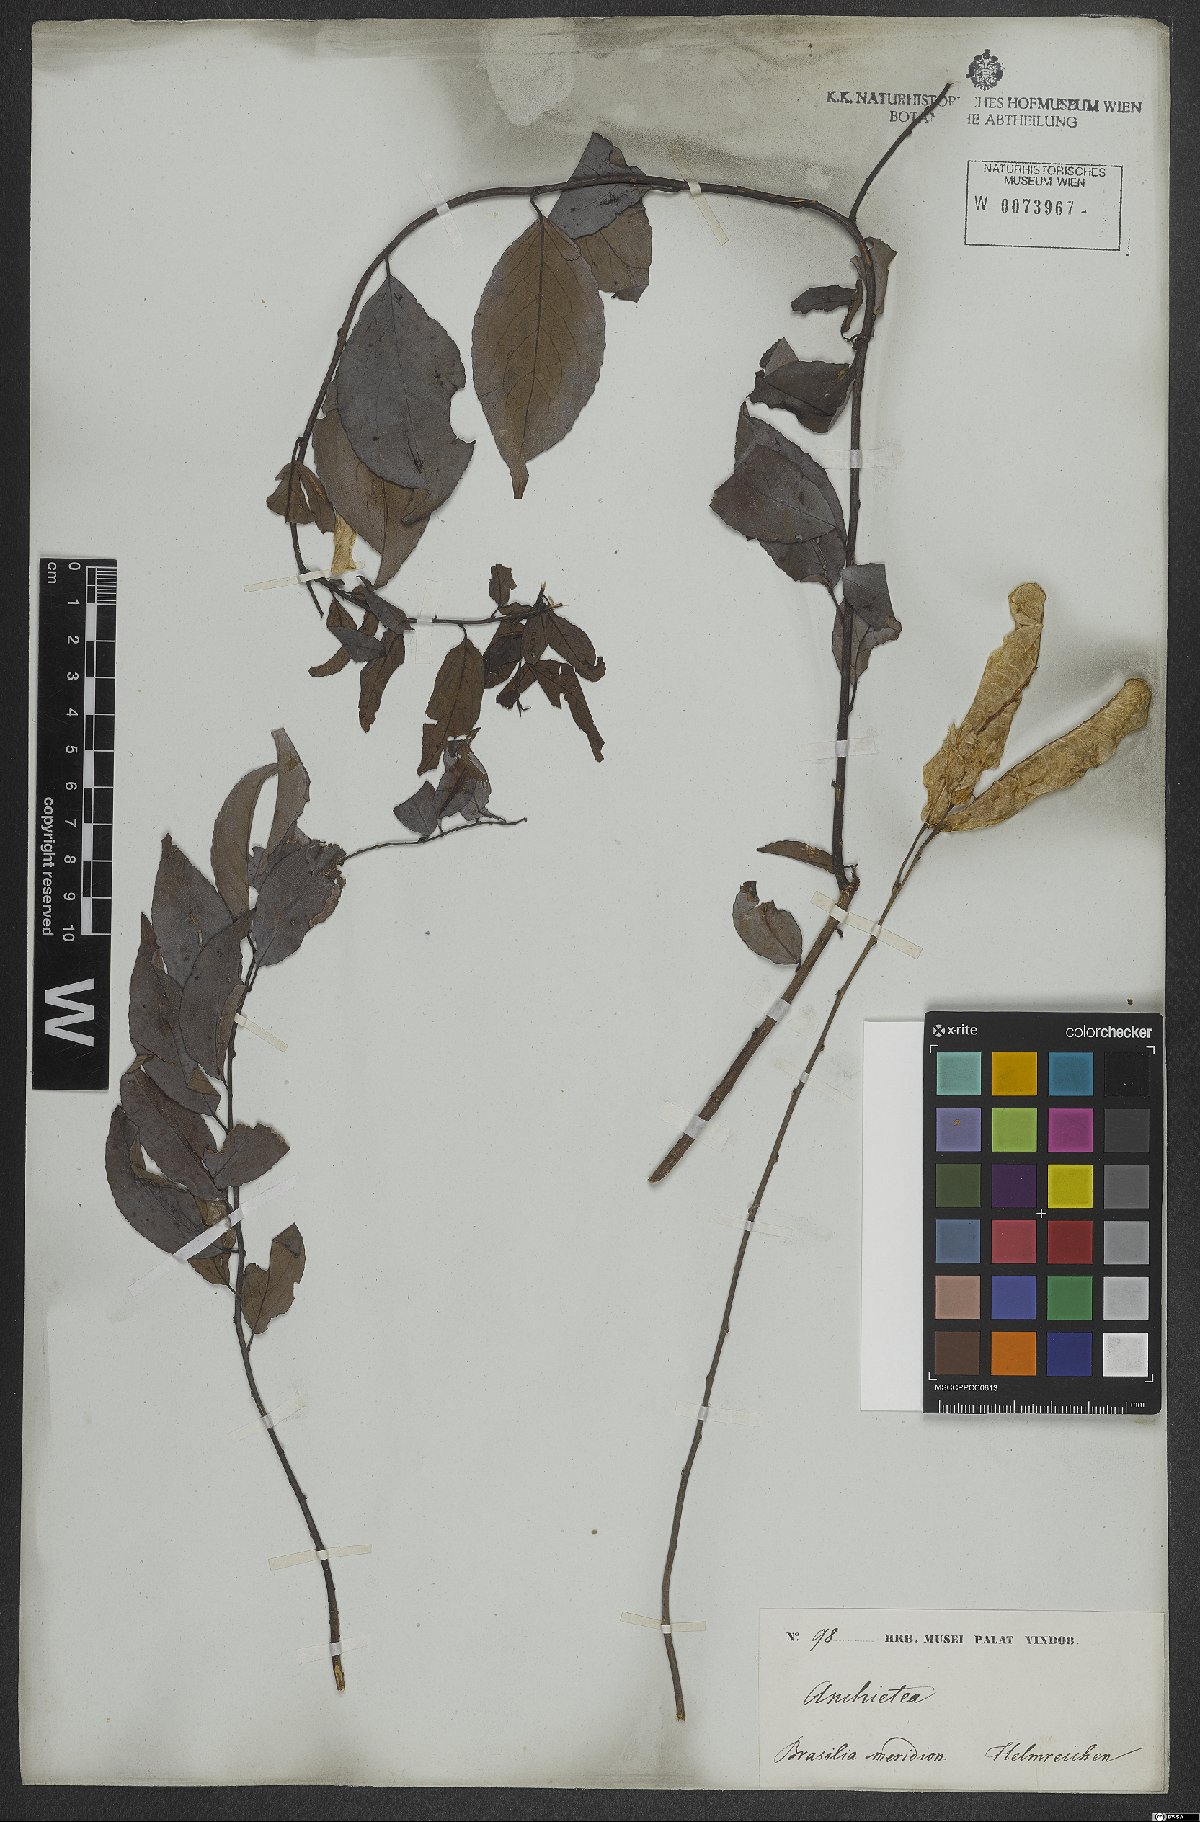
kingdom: Plantae
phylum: Tracheophyta
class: Magnoliopsida
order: Malpighiales
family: Violaceae
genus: Anchietea
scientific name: Anchietea pyrifolia
